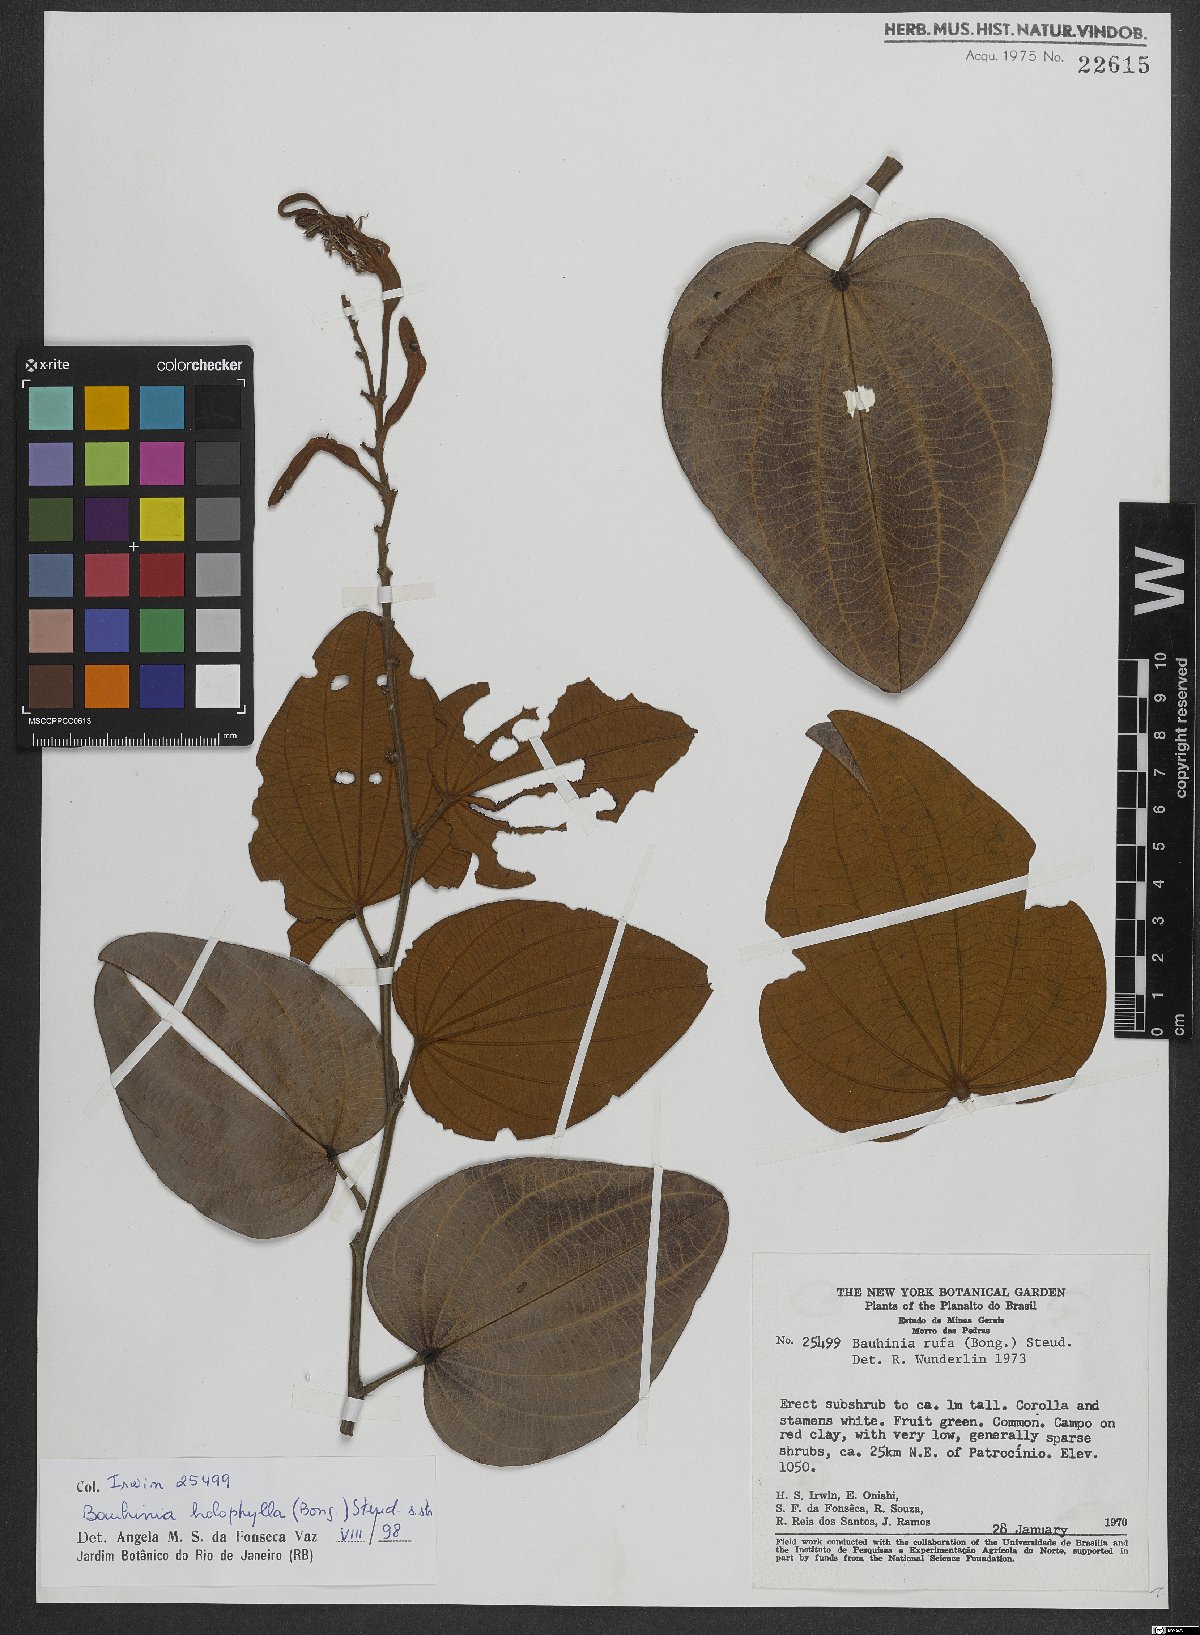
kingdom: Plantae
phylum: Tracheophyta
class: Magnoliopsida
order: Fabales
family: Fabaceae
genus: Bauhinia
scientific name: Bauhinia rufa
